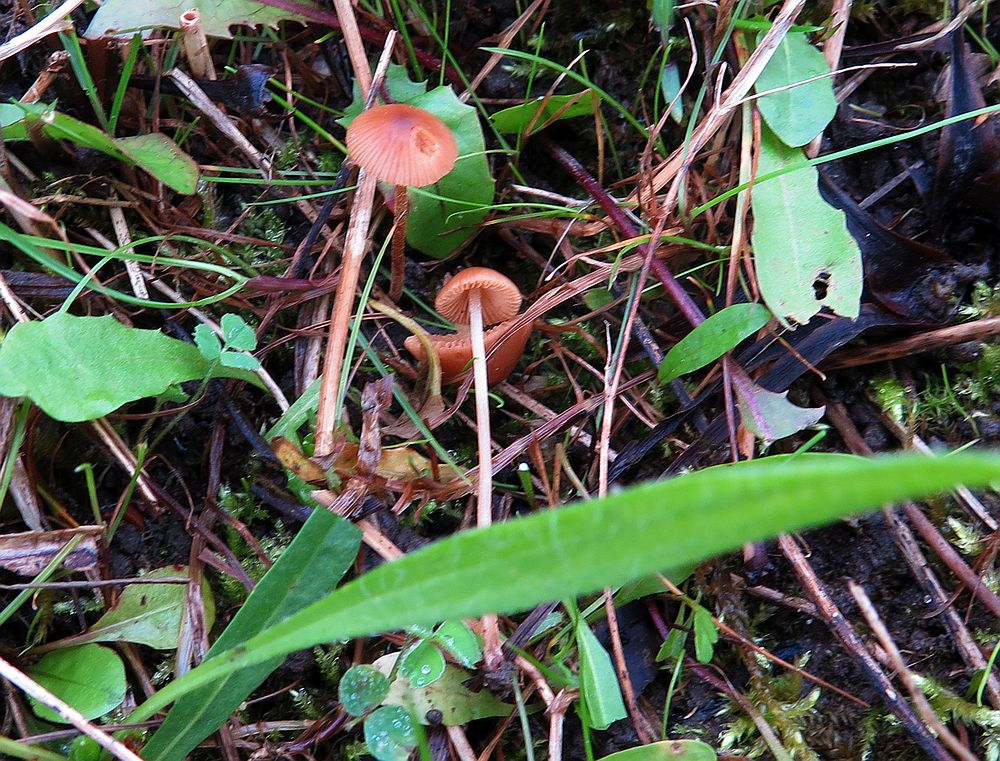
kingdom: Fungi
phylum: Basidiomycota
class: Agaricomycetes
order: Agaricales
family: Bolbitiaceae
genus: Conocybe
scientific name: Conocybe rickeniana
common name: kastaniebrun keglehat
